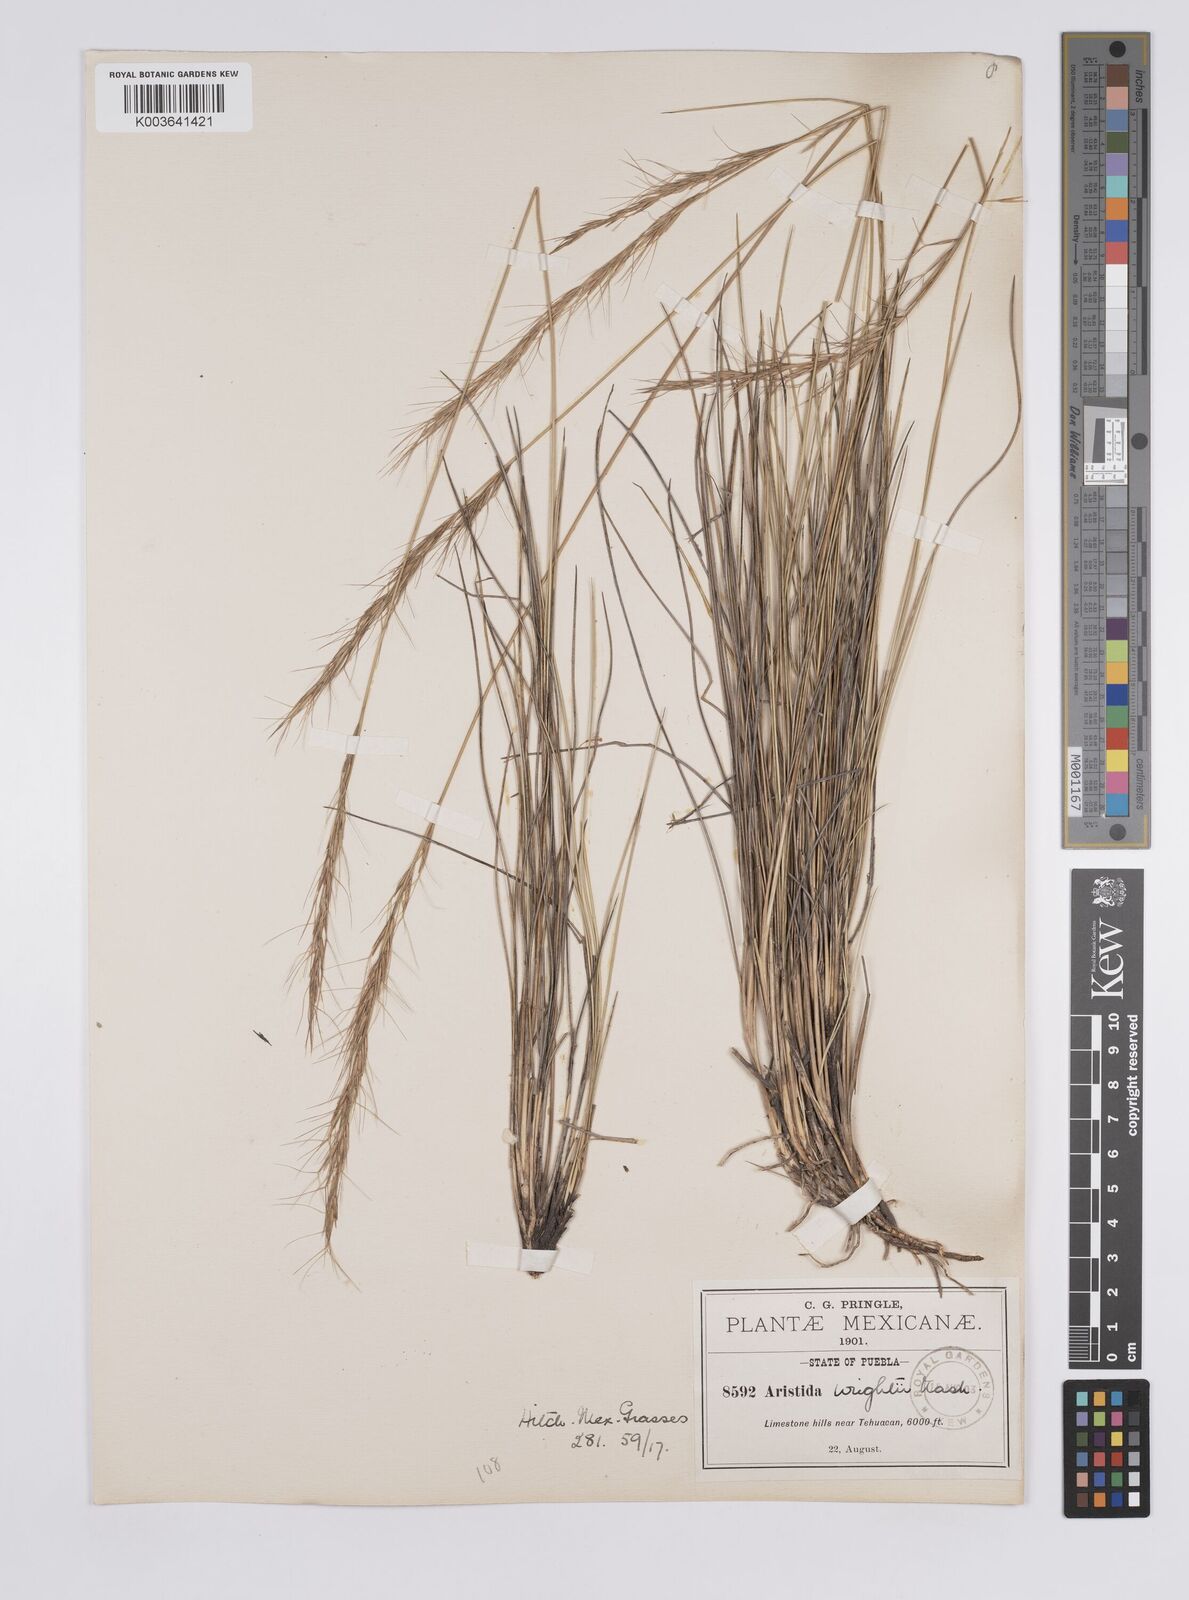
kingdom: Plantae
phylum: Tracheophyta
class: Liliopsida
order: Poales
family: Poaceae
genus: Aristida
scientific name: Aristida purpurea
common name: Purple threeawn
